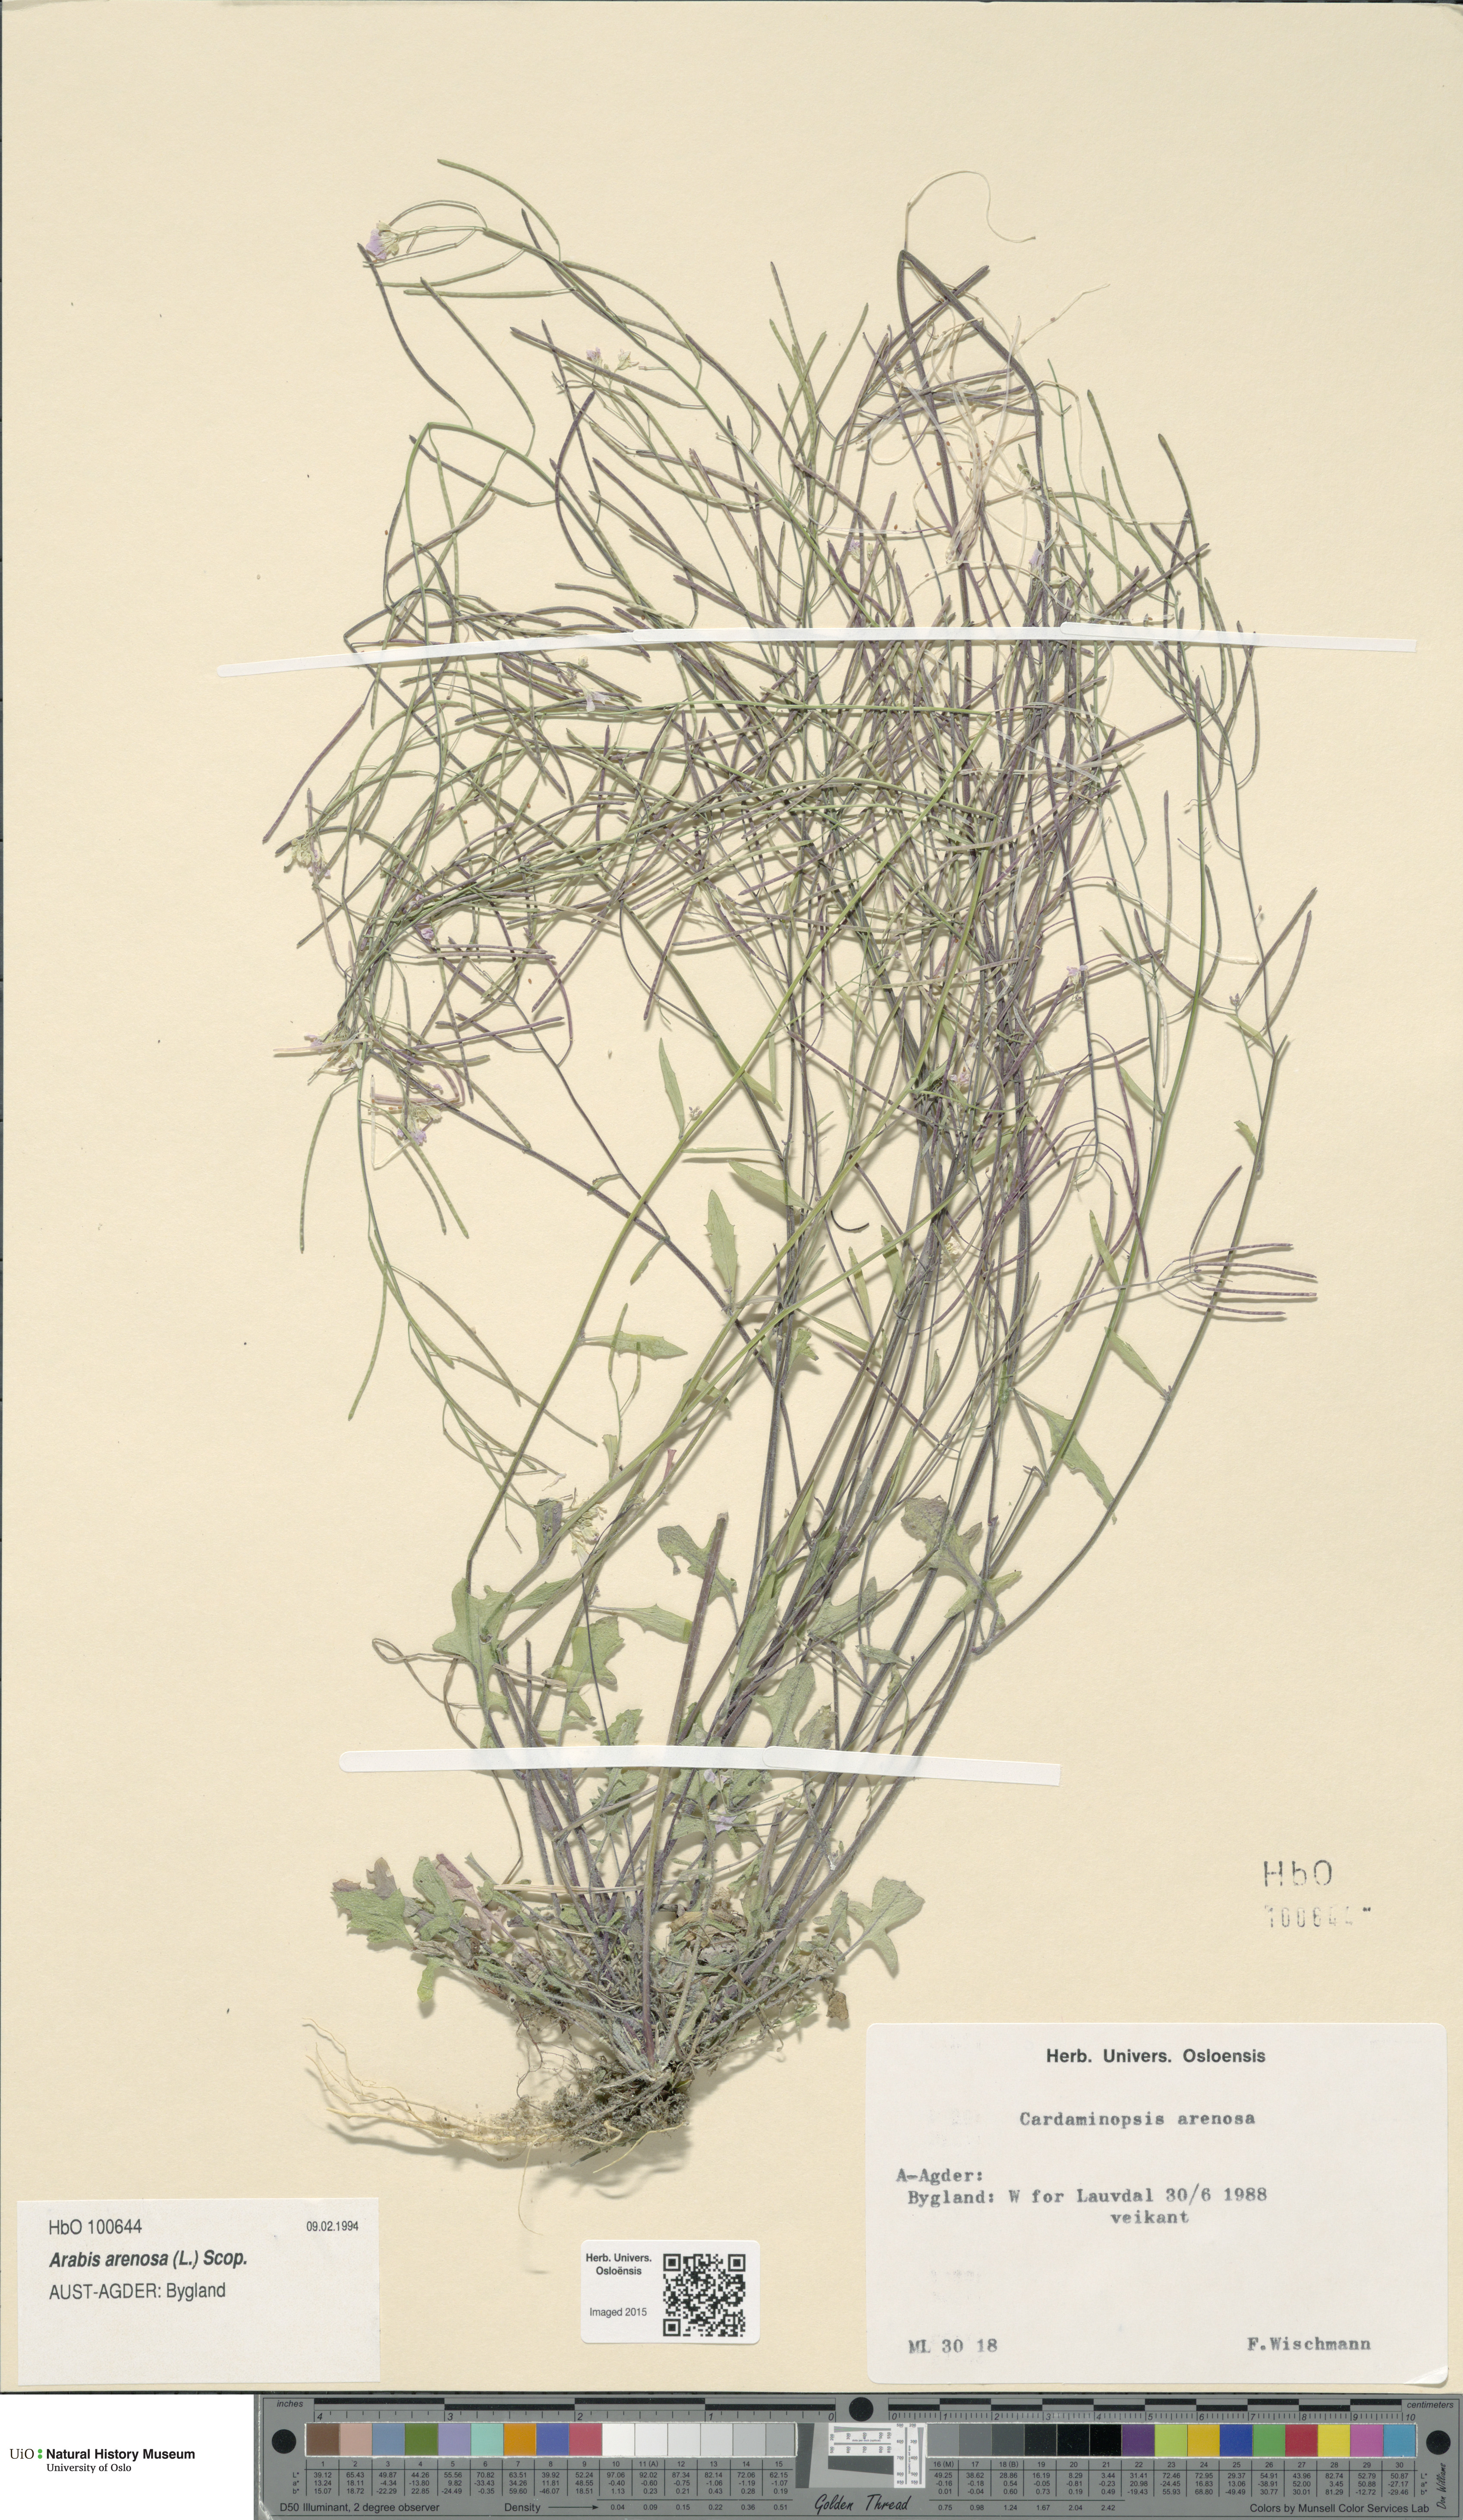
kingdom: Plantae
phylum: Tracheophyta
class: Magnoliopsida
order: Brassicales
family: Brassicaceae
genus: Arabidopsis
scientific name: Arabidopsis arenosa
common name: Sand rock-cress
